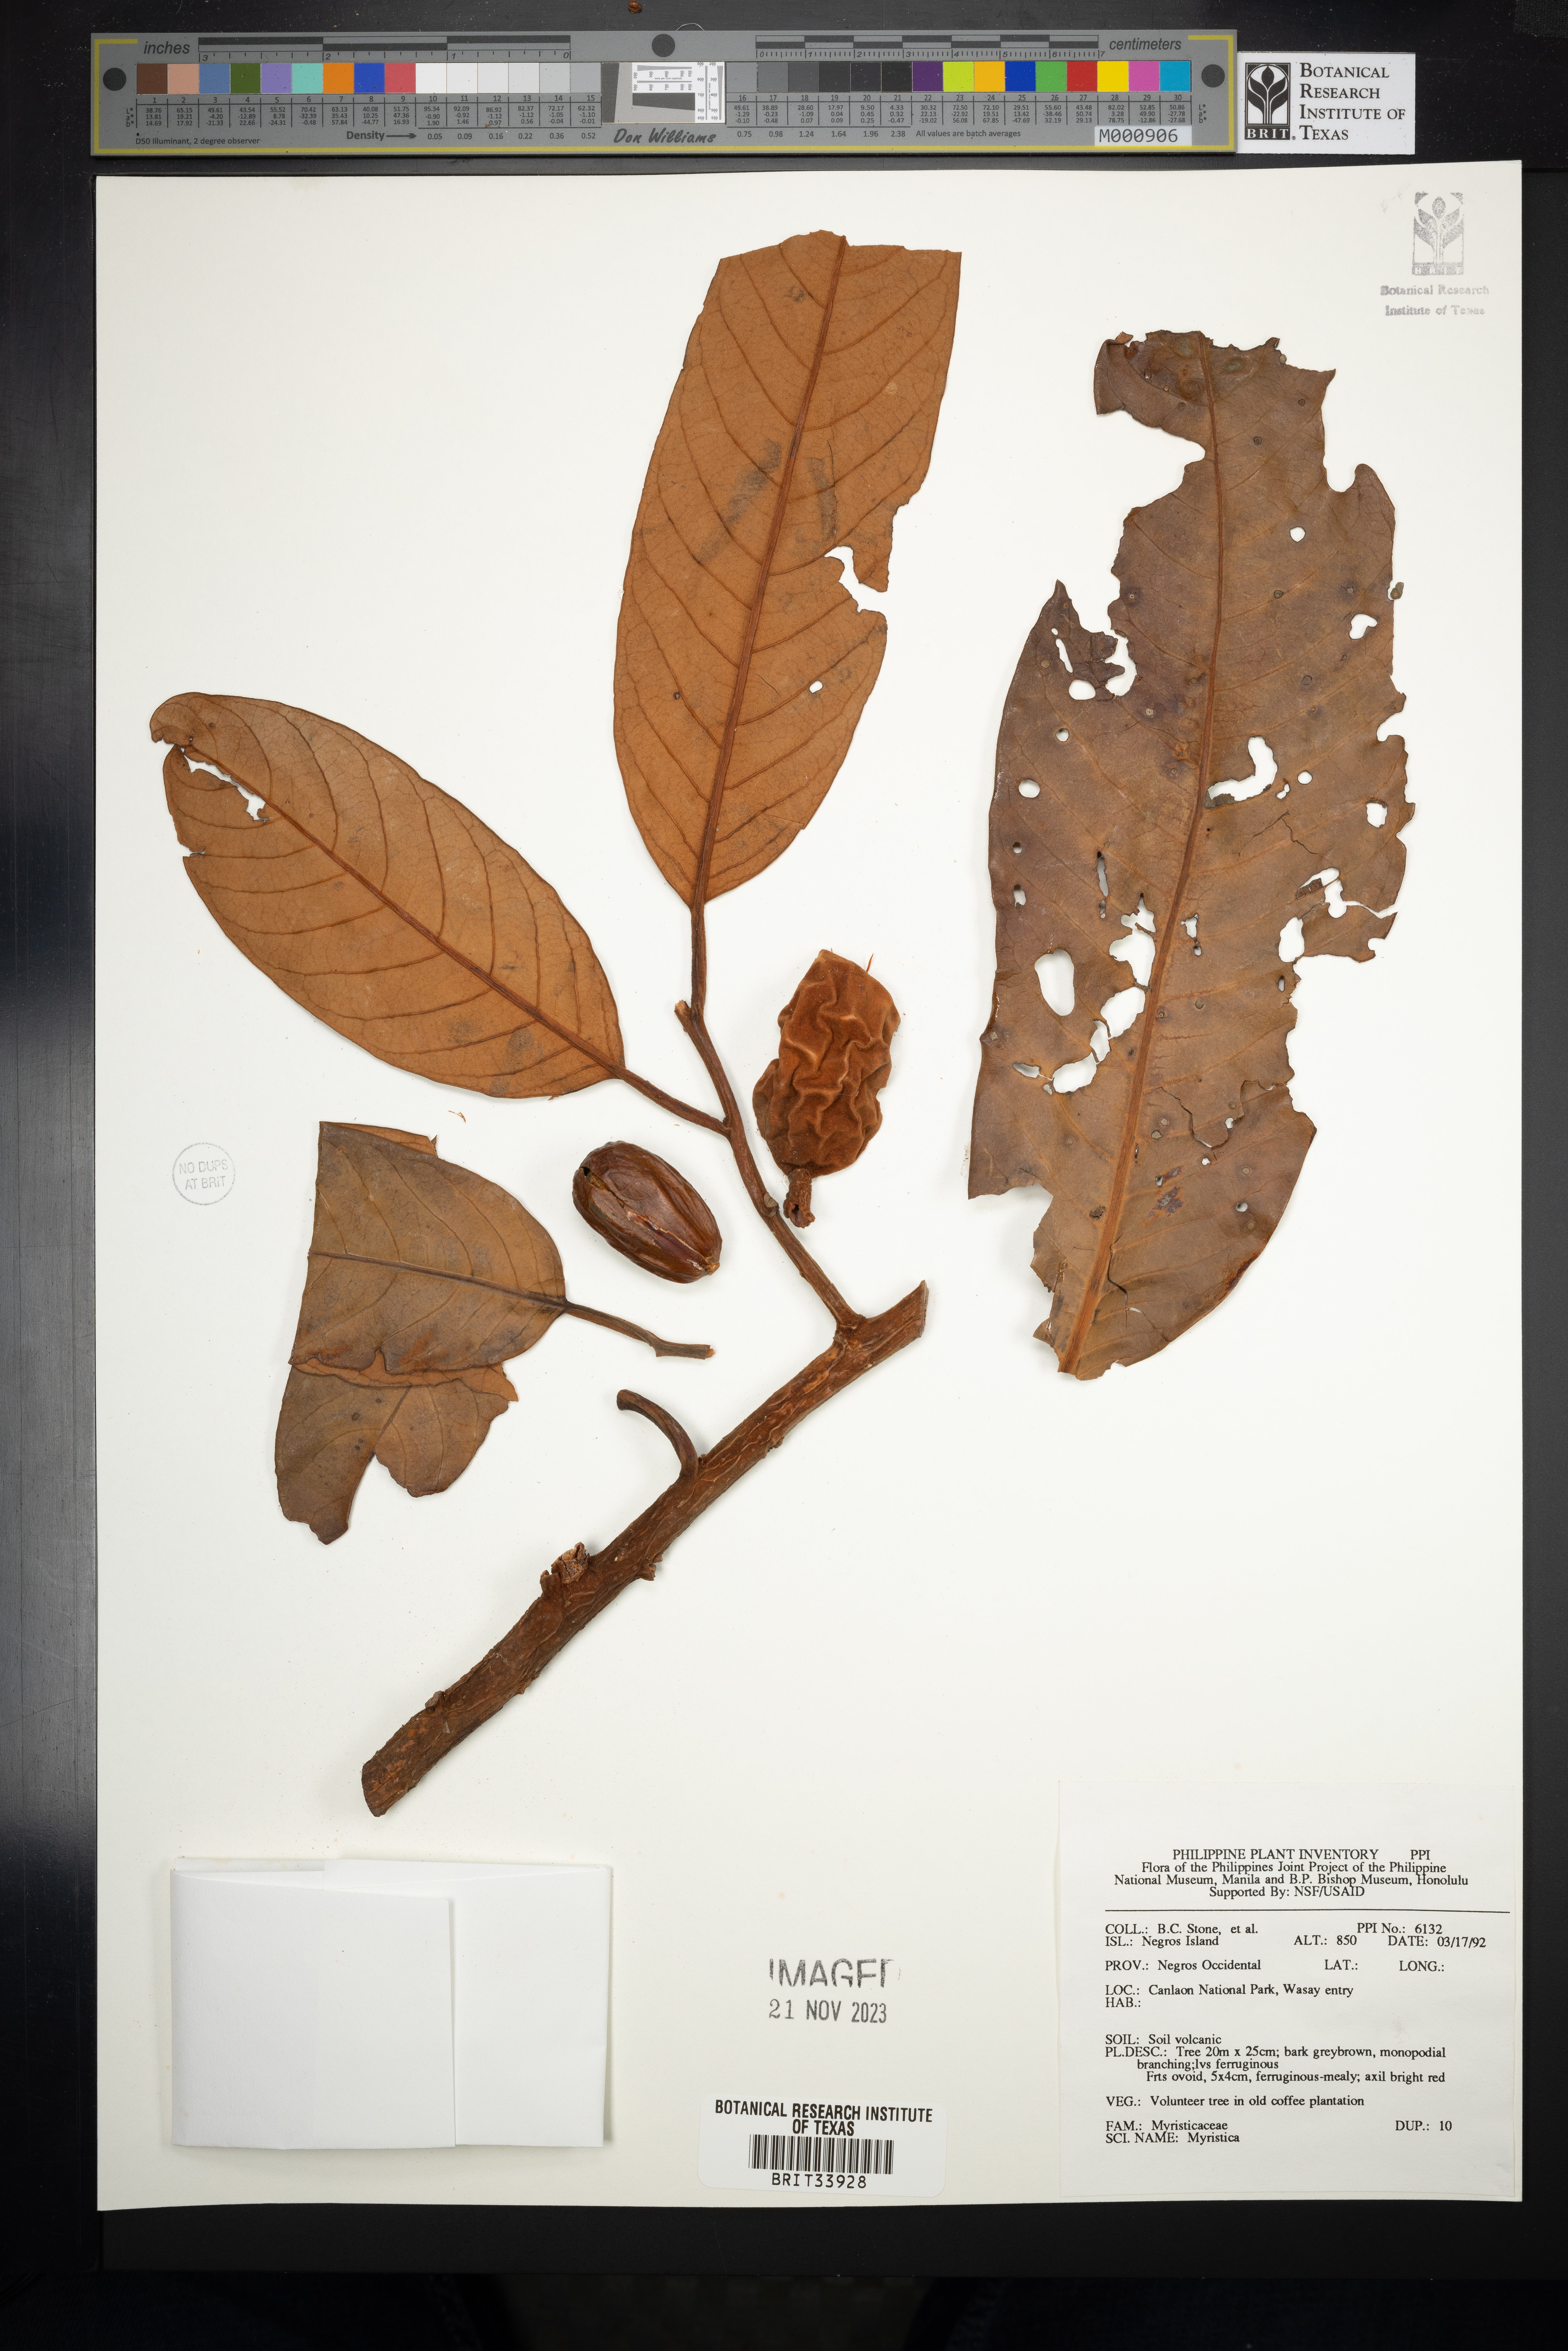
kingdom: Plantae
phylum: Tracheophyta
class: Magnoliopsida
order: Magnoliales
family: Myristicaceae
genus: Myristica
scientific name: Myristica
